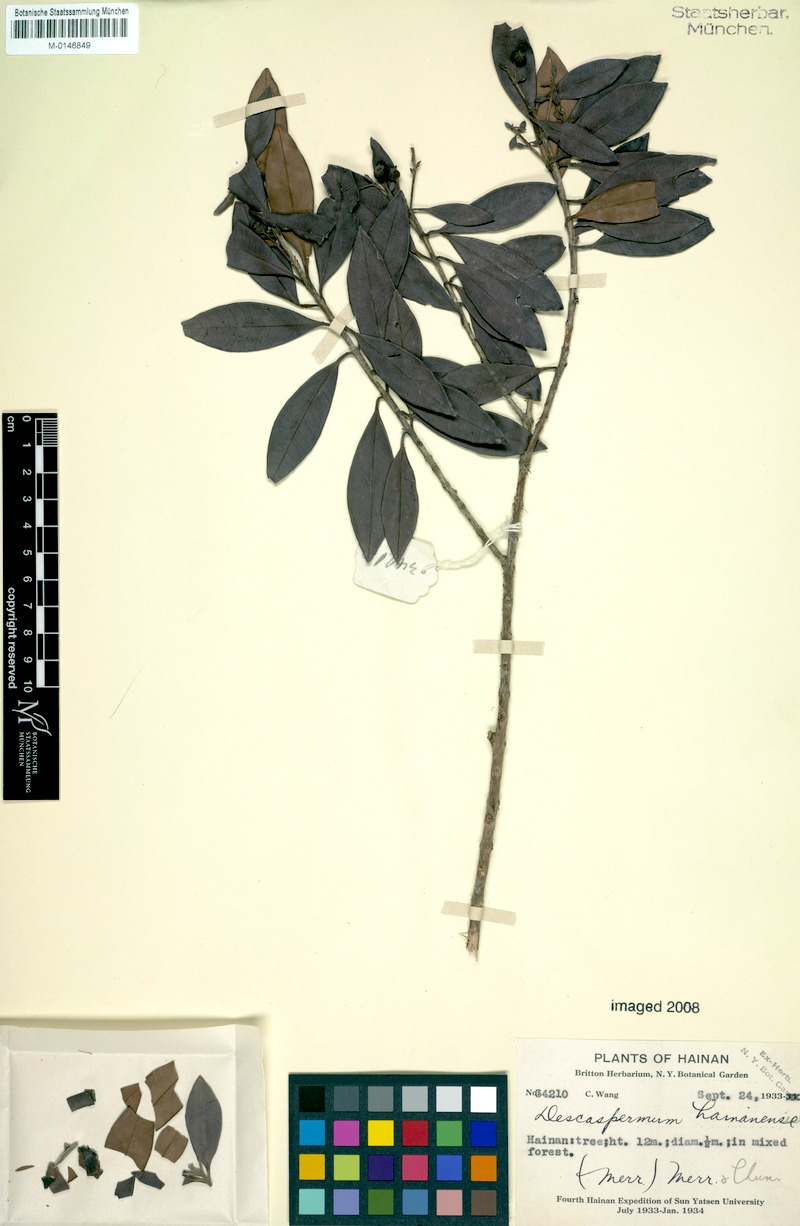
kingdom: Plantae
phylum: Tracheophyta
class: Magnoliopsida
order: Myrtales
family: Myrtaceae
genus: Decaspermum
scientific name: Decaspermum hainanense
